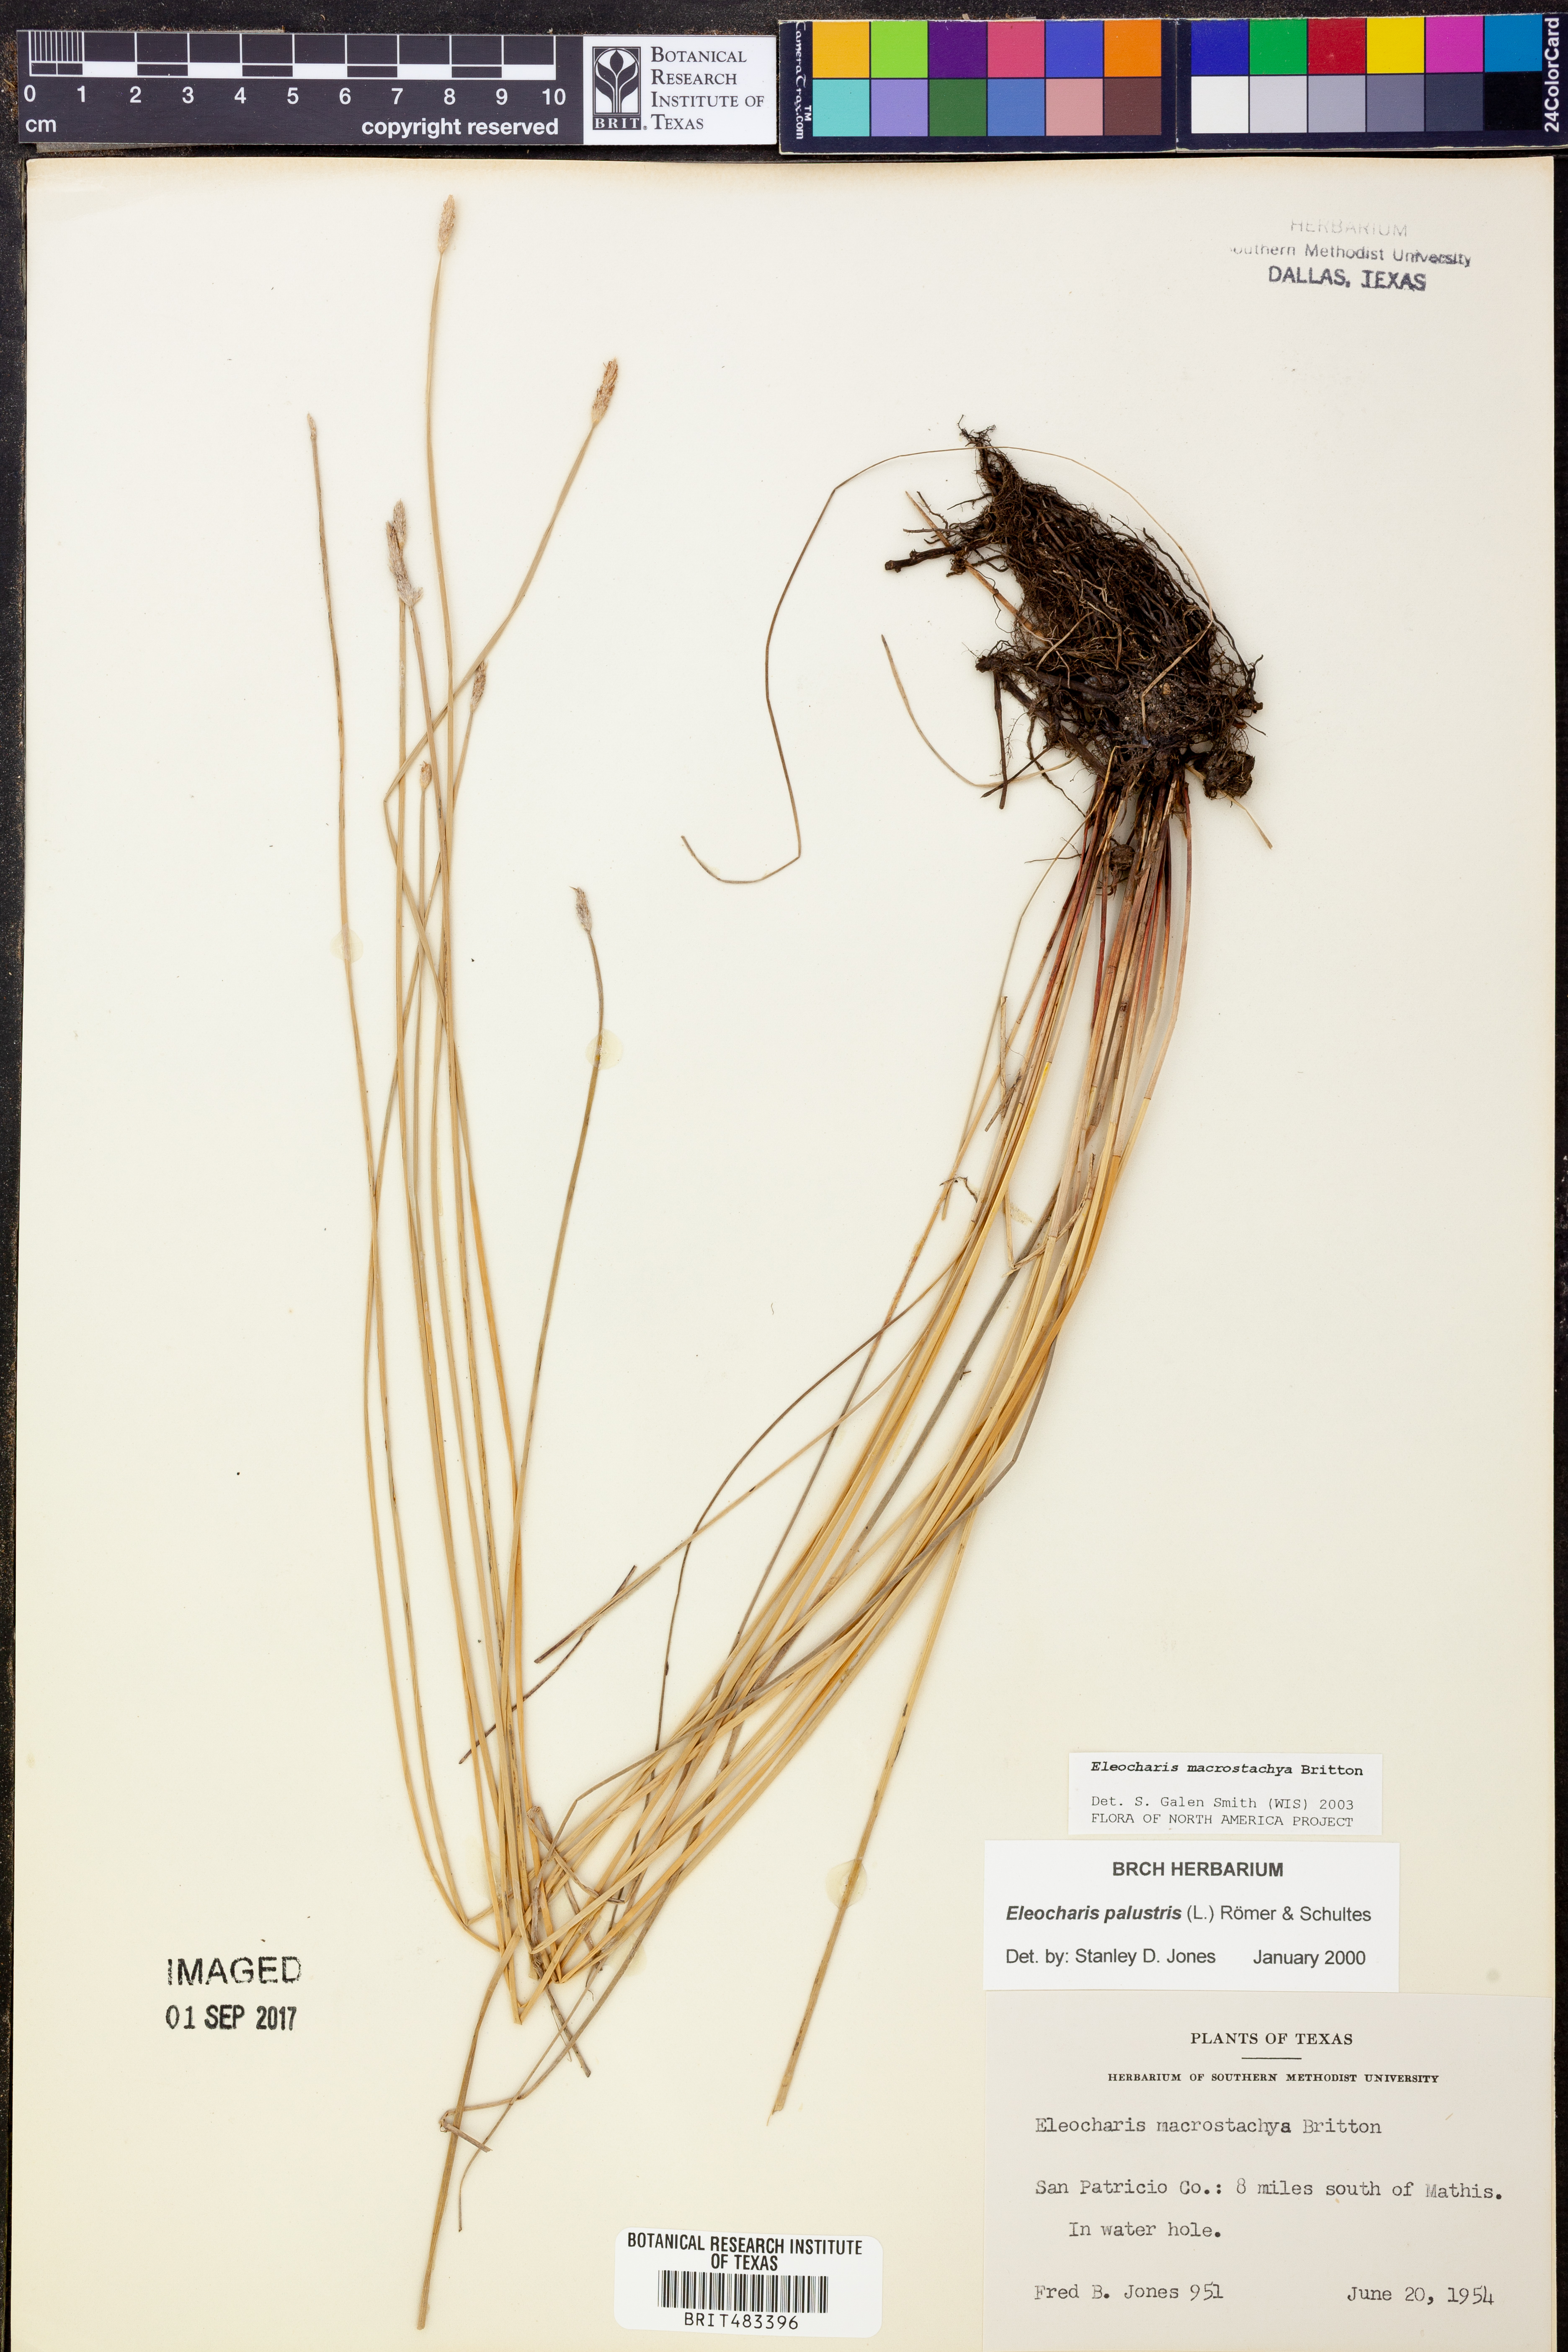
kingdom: Plantae
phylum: Tracheophyta
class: Liliopsida
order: Poales
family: Cyperaceae
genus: Eleocharis
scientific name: Eleocharis macrostachya
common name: Pale spikerush
